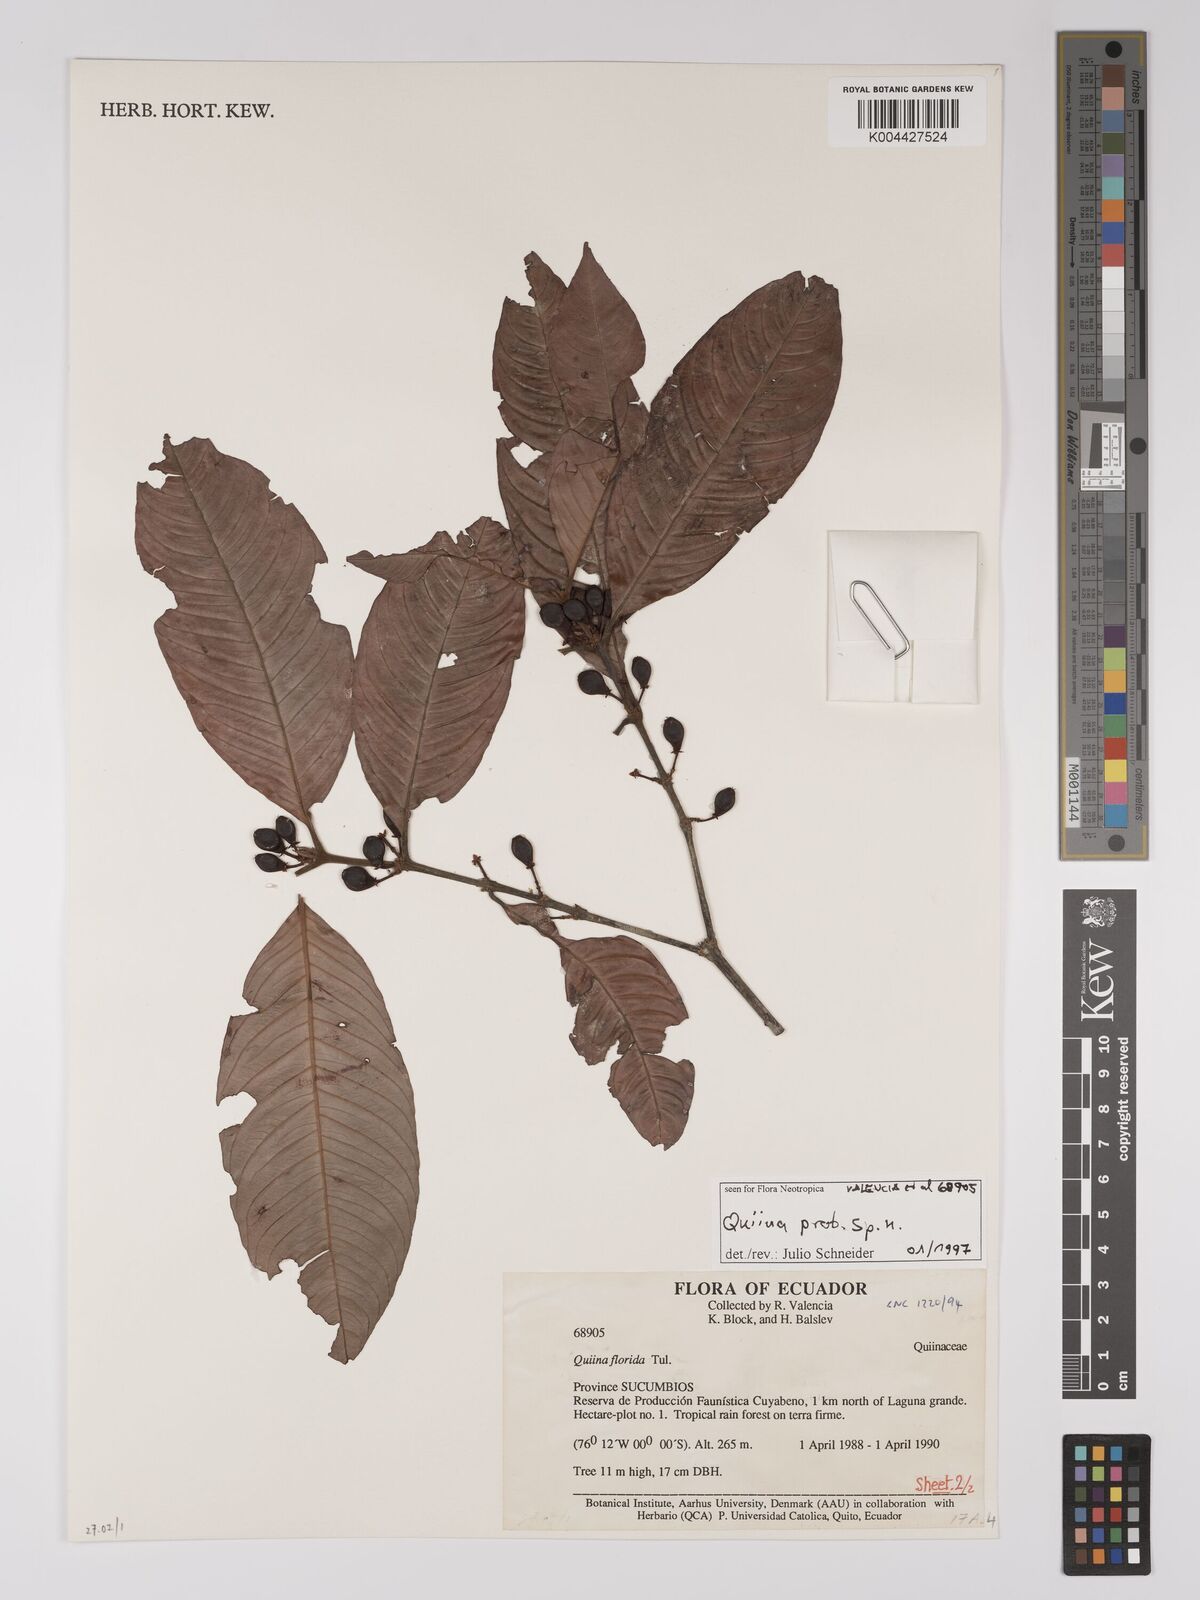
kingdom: Plantae
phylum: Tracheophyta
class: Magnoliopsida
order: Malpighiales
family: Ochnaceae
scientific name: Ochnaceae
